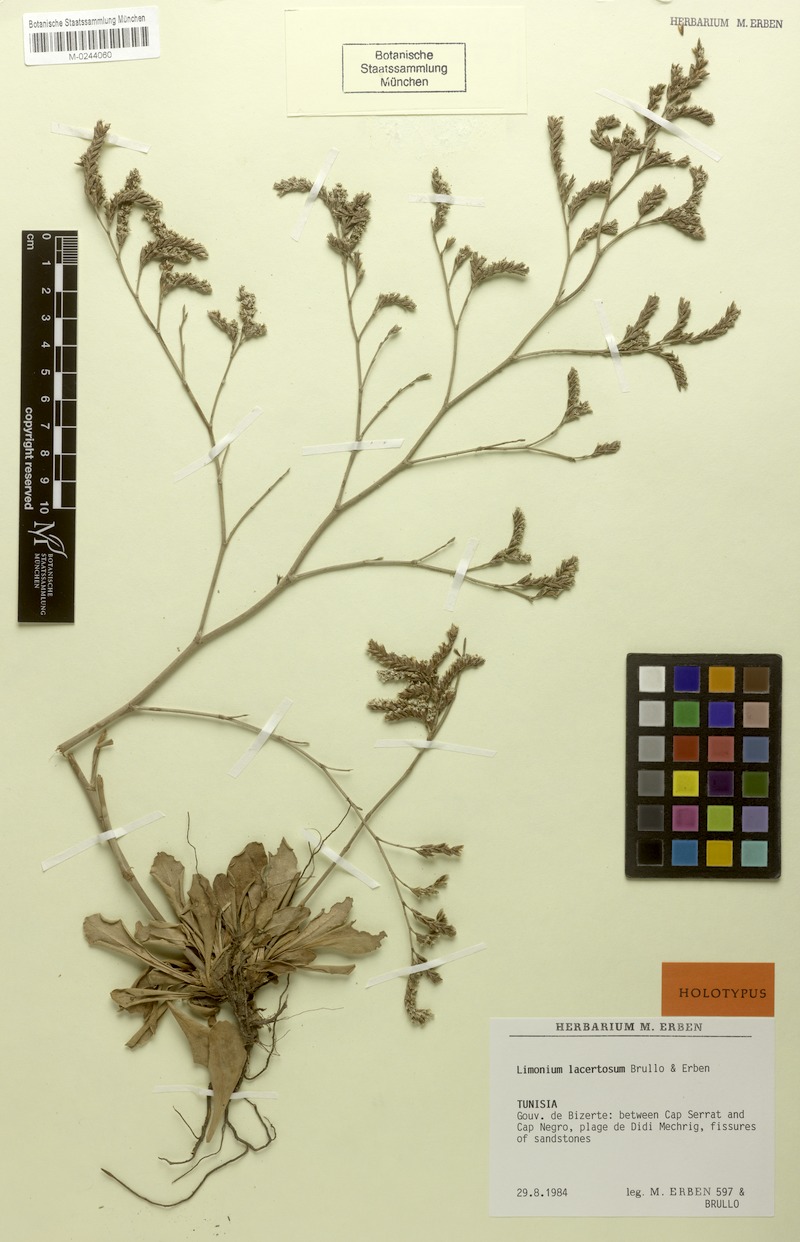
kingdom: Plantae
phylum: Tracheophyta
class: Magnoliopsida
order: Caryophyllales
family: Plumbaginaceae
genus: Limonium
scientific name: Limonium lacertosum
